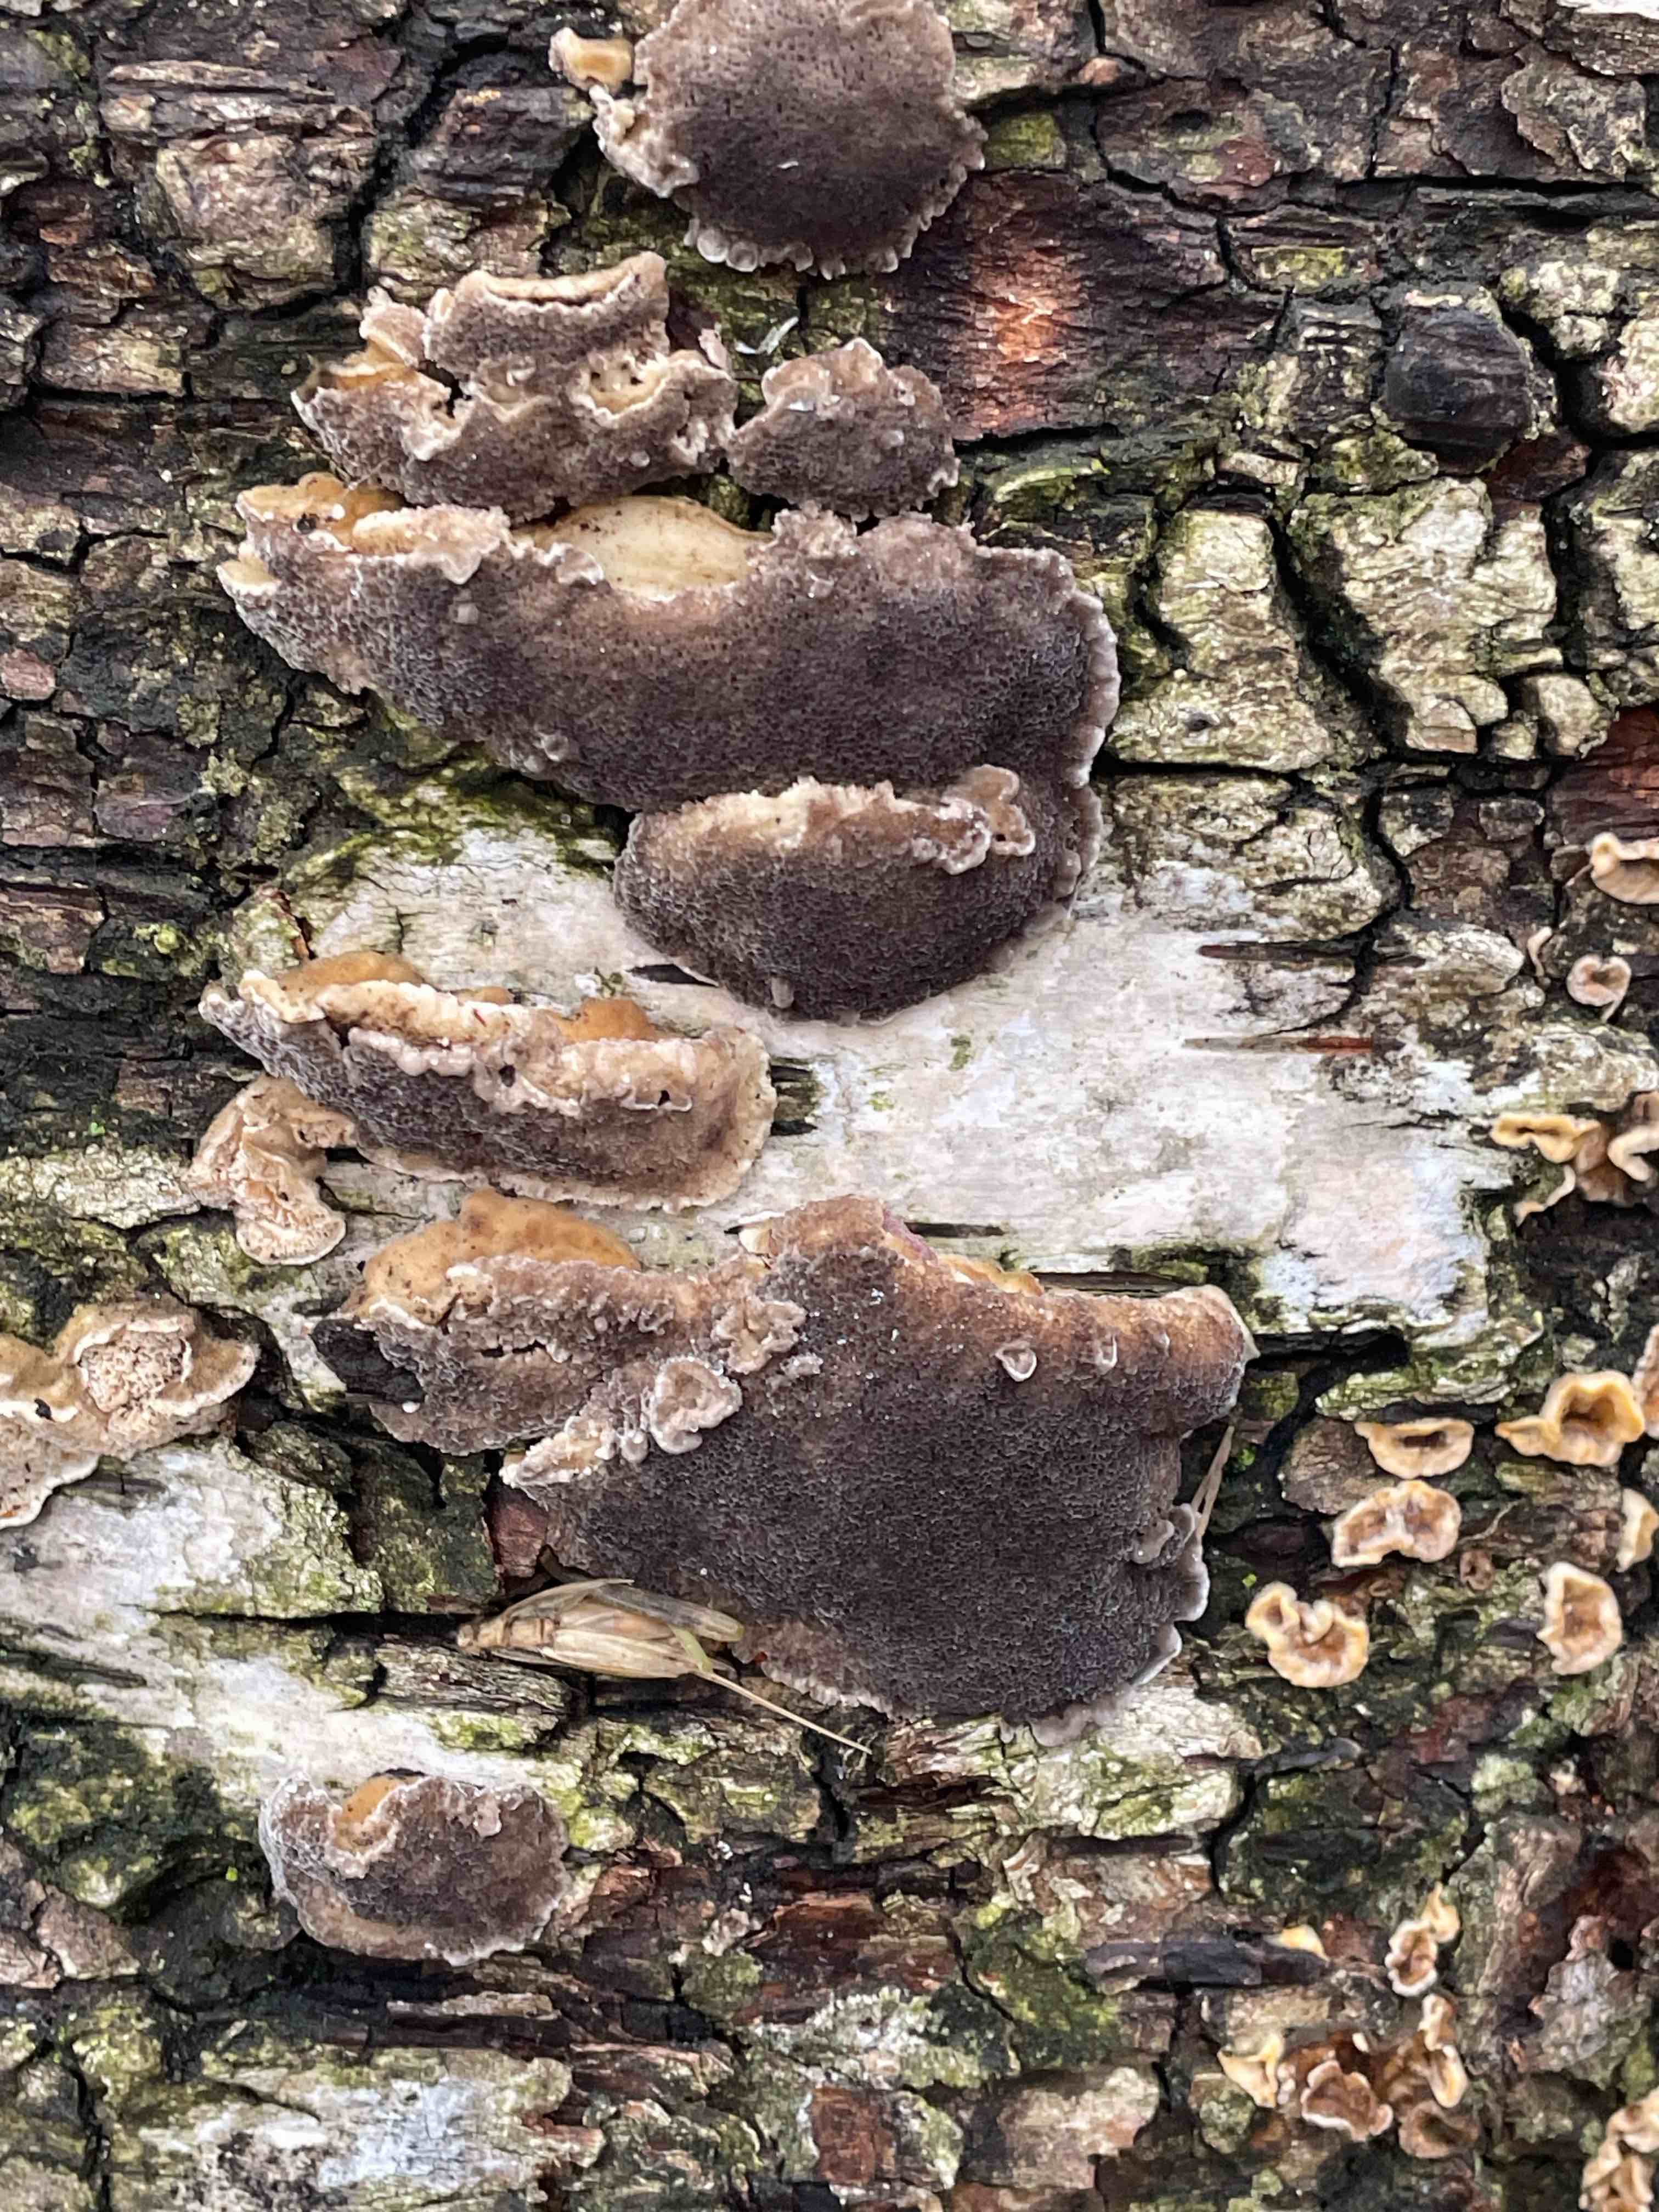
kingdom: Fungi
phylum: Basidiomycota
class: Agaricomycetes
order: Polyporales
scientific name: Polyporales
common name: poresvampordenen
